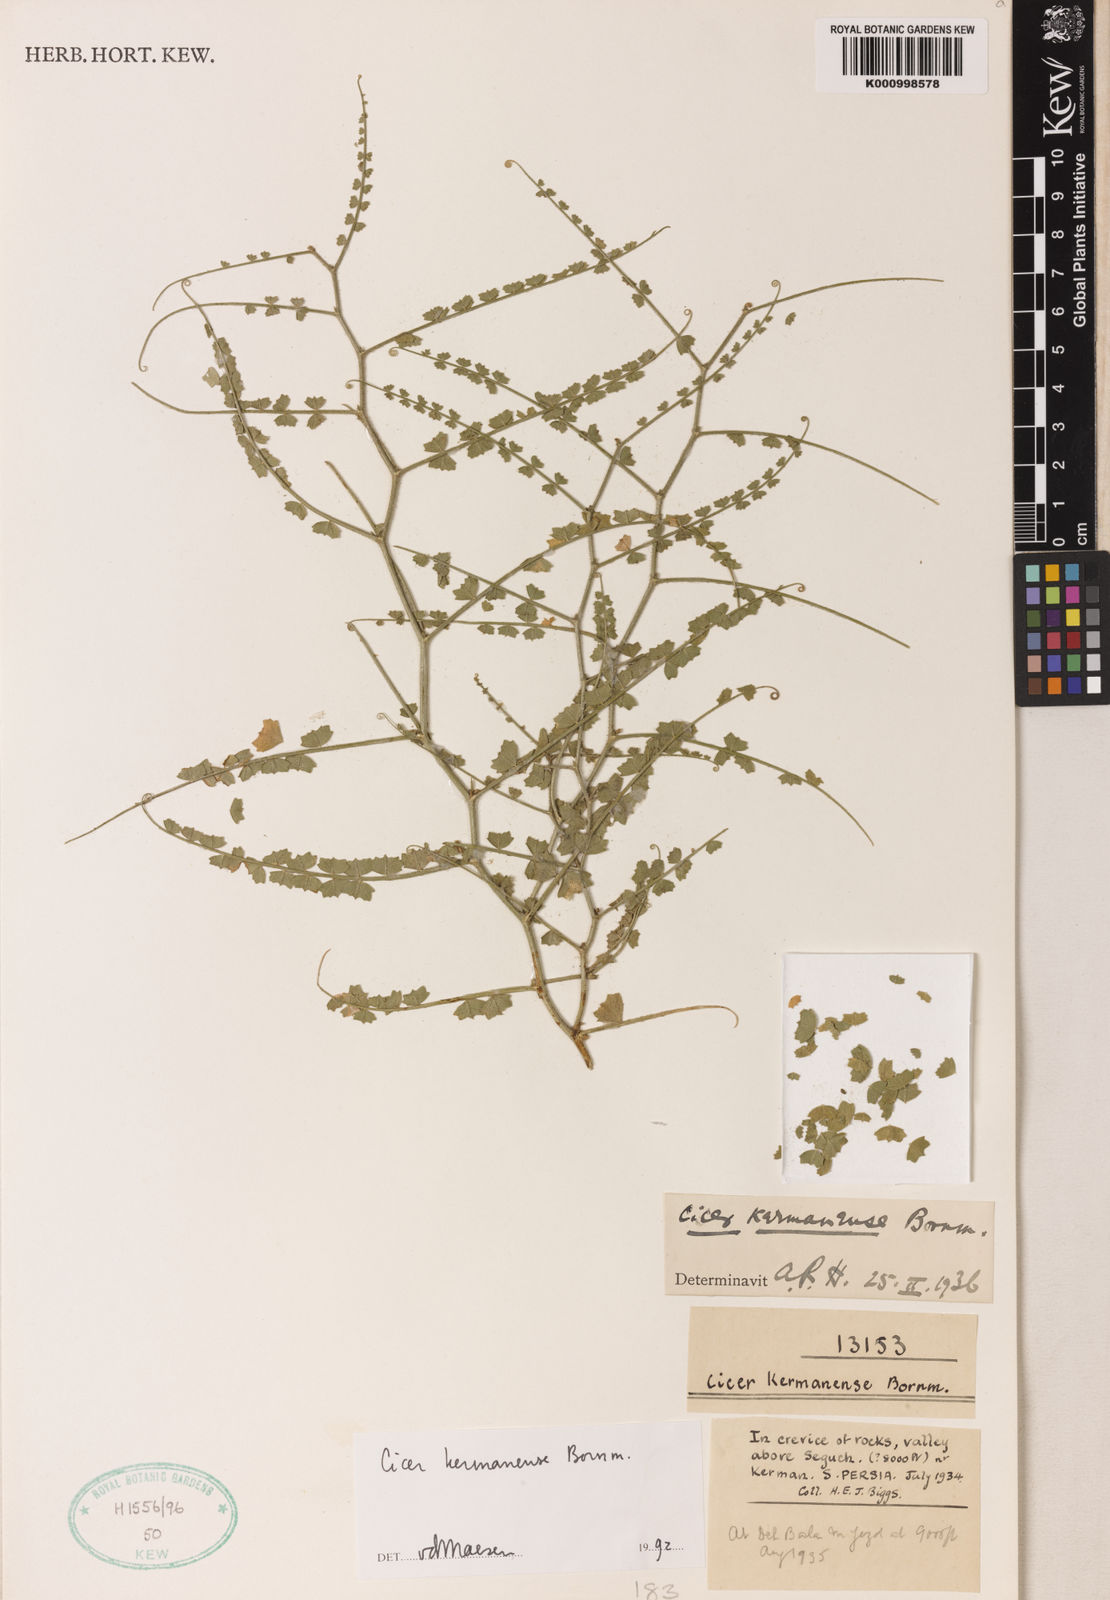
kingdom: Plantae
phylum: Tracheophyta
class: Magnoliopsida
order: Fabales
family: Fabaceae
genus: Cicer
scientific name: Cicer kermanense
